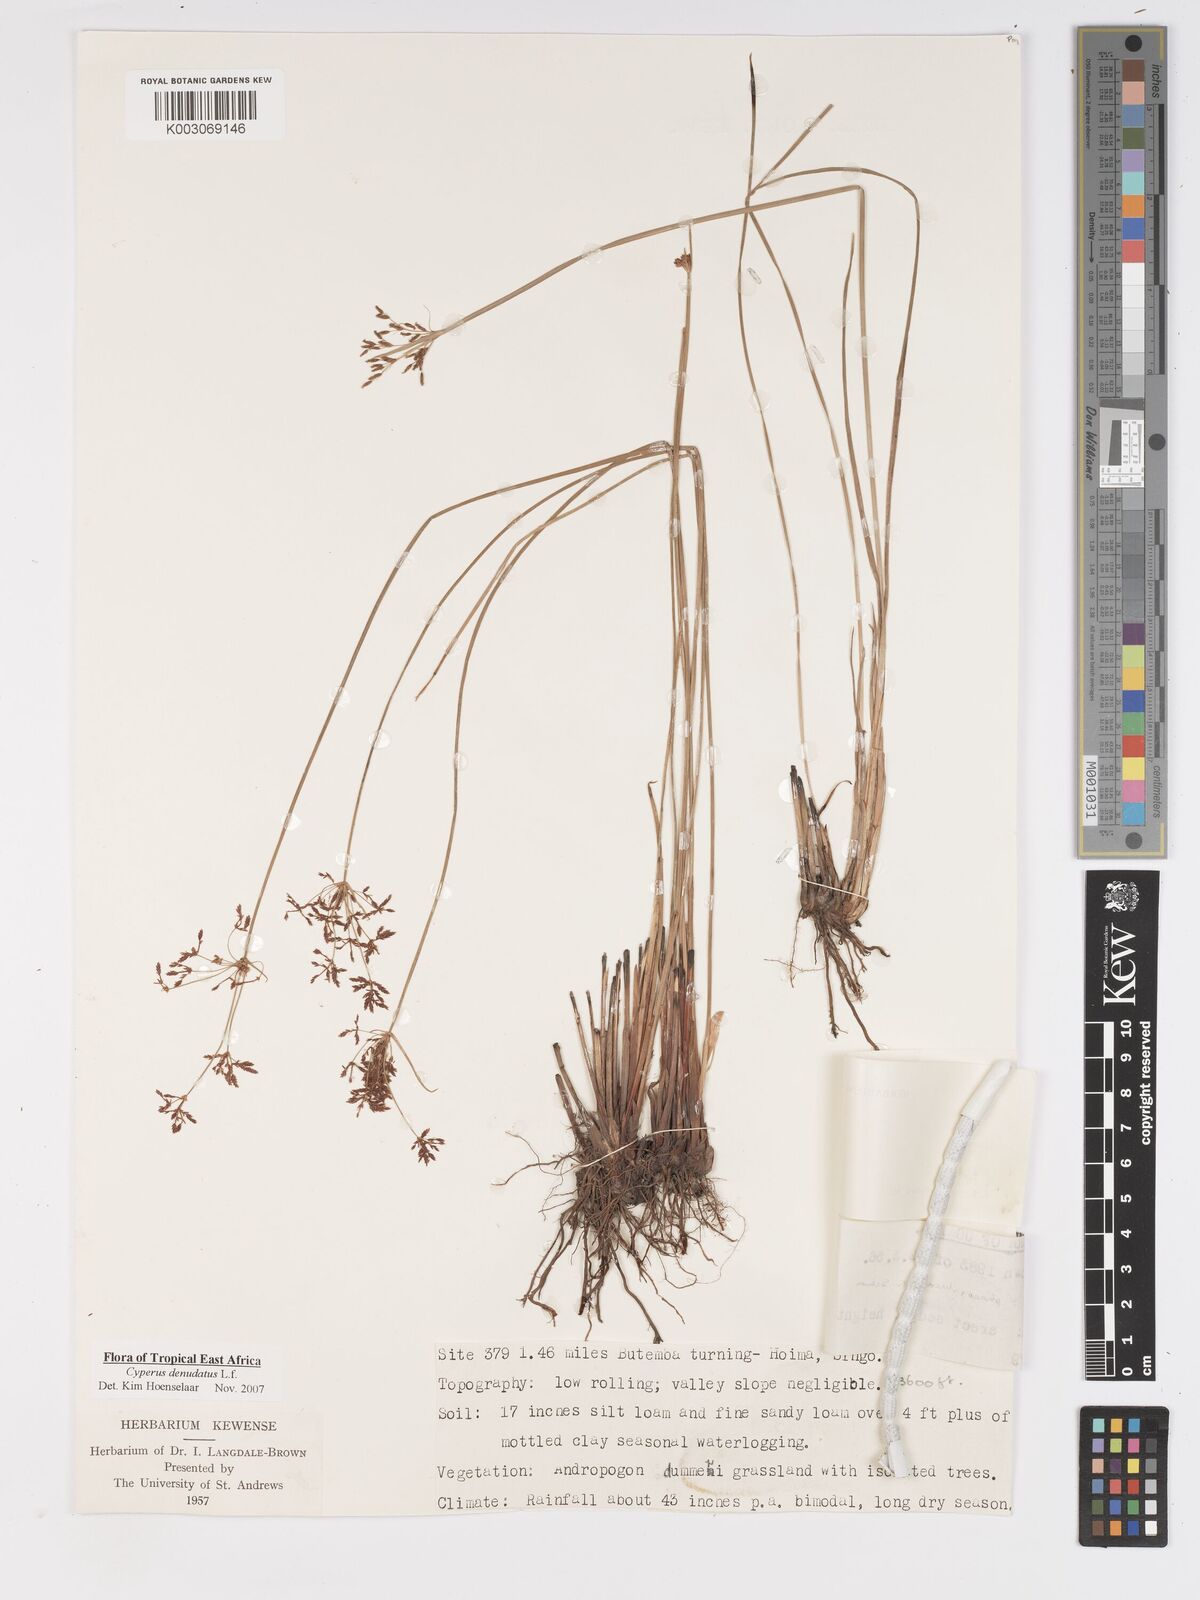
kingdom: Plantae
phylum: Tracheophyta
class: Liliopsida
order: Poales
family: Cyperaceae
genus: Cyperus
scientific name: Cyperus denudatus
